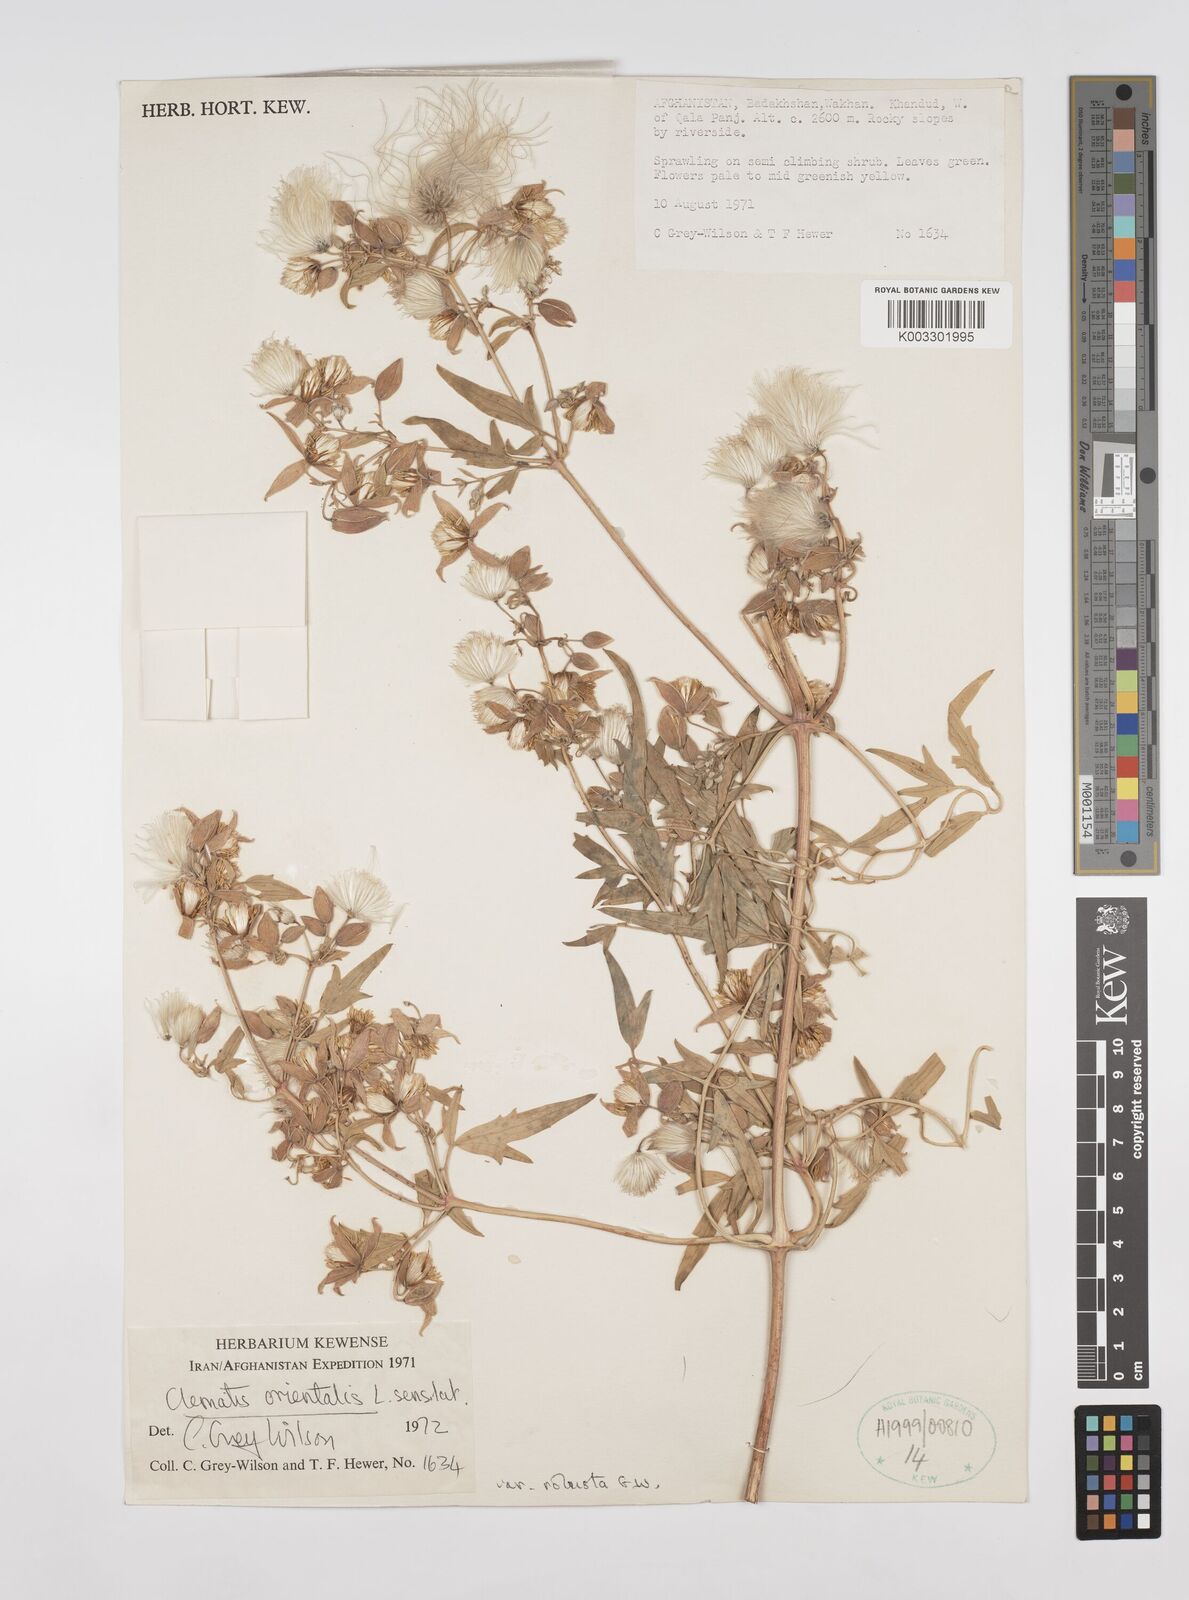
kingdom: Plantae
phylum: Tracheophyta
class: Magnoliopsida
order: Ranunculales
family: Ranunculaceae
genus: Clematis
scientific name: Clematis orientalis
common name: Oriental virgin's-bower
